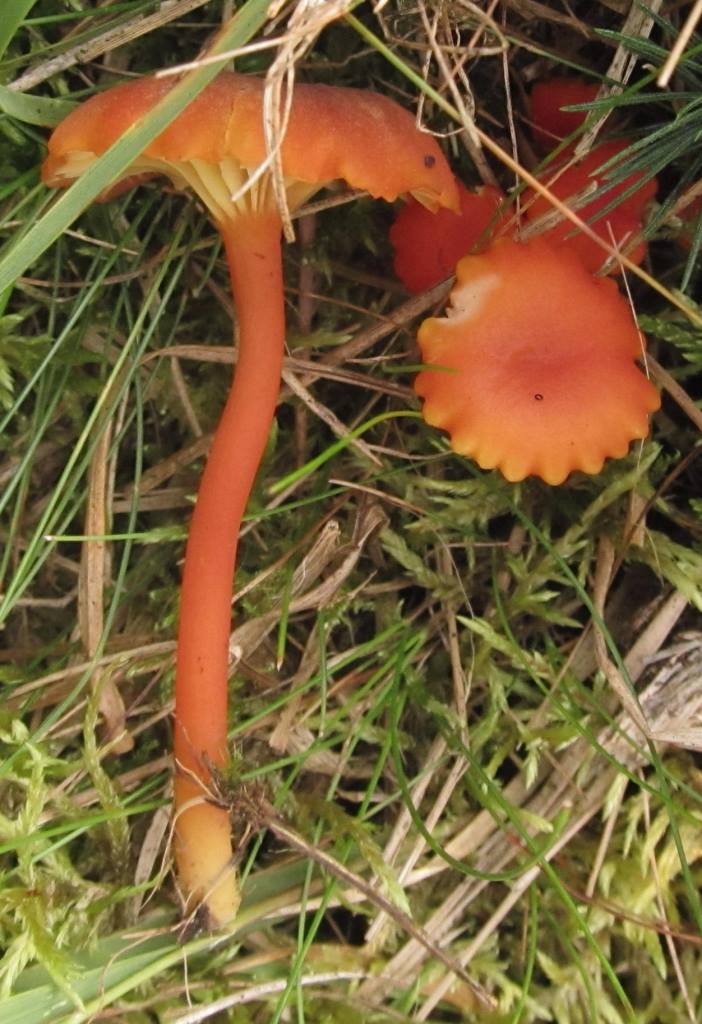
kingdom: Fungi
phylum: Basidiomycota
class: Agaricomycetes
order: Agaricales
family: Hygrophoraceae
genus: Hygrocybe
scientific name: Hygrocybe coccineocrenata
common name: tørvemos-vokshat
